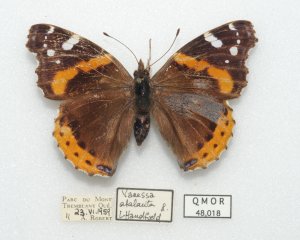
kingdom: Animalia
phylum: Arthropoda
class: Insecta
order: Lepidoptera
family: Nymphalidae
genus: Vanessa
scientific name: Vanessa atalanta
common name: Red Admiral
